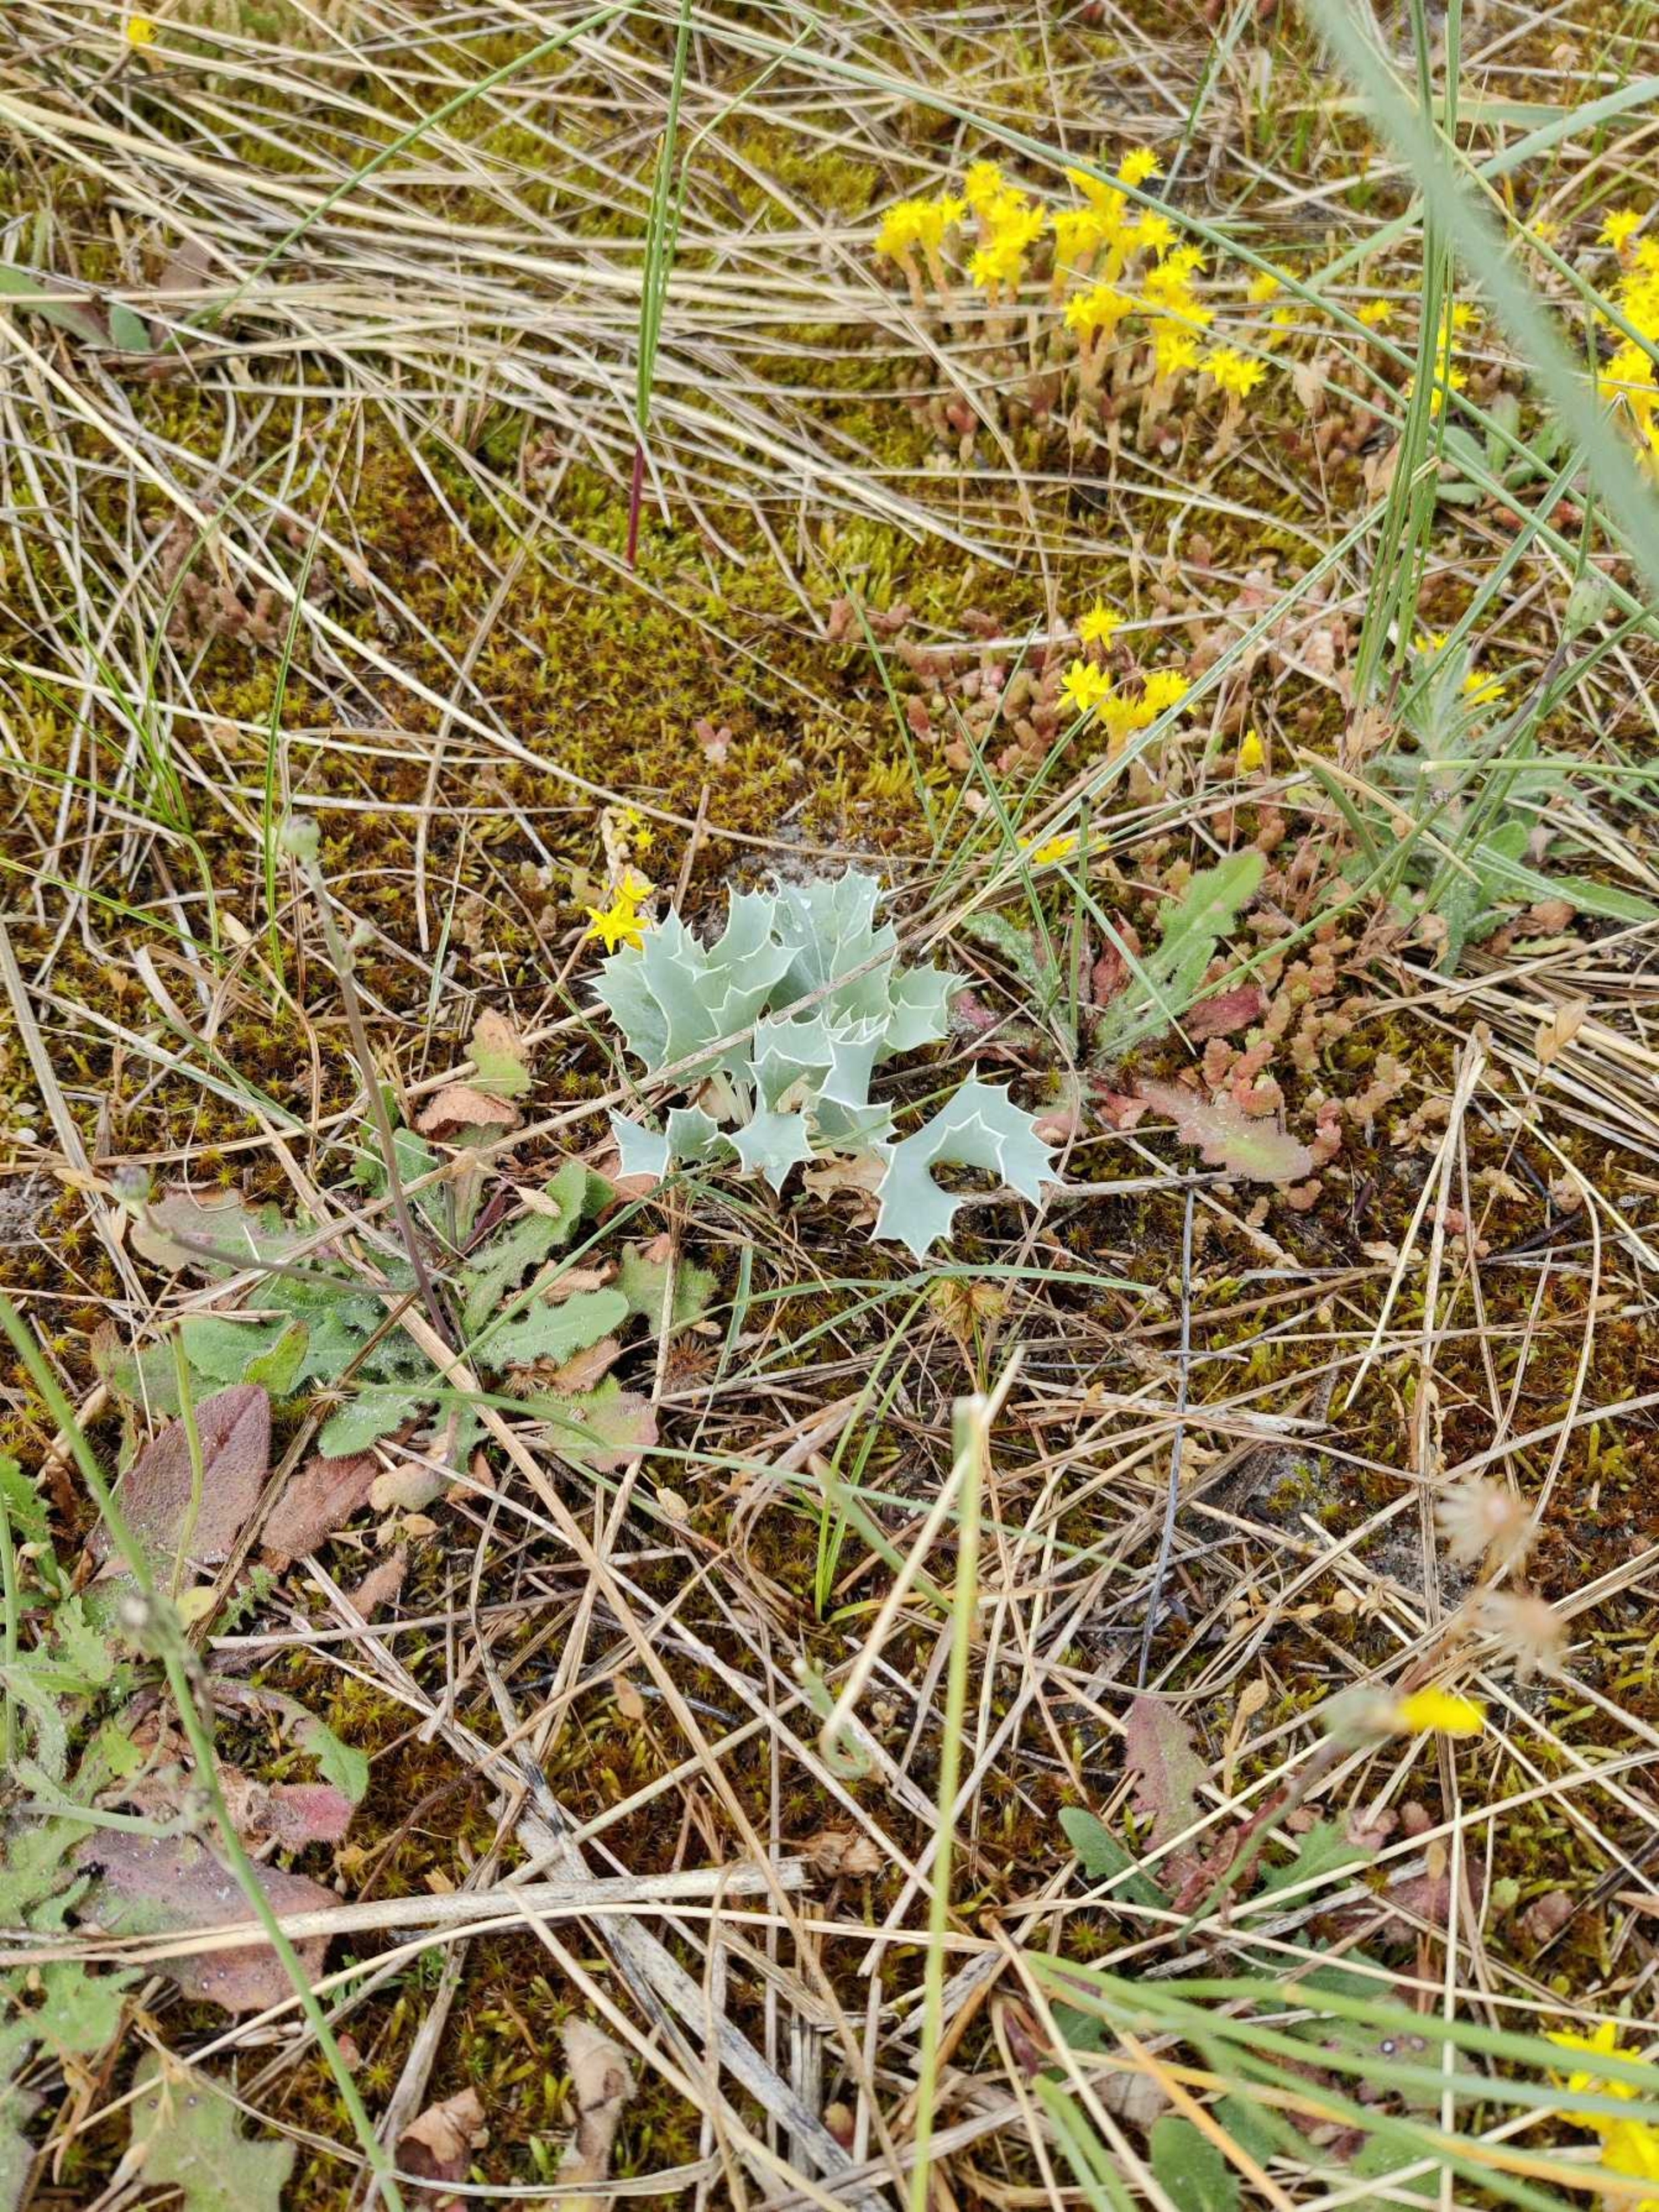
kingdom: Plantae
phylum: Tracheophyta
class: Magnoliopsida
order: Apiales
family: Apiaceae
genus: Eryngium
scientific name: Eryngium maritimum
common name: Strand-mandstro
